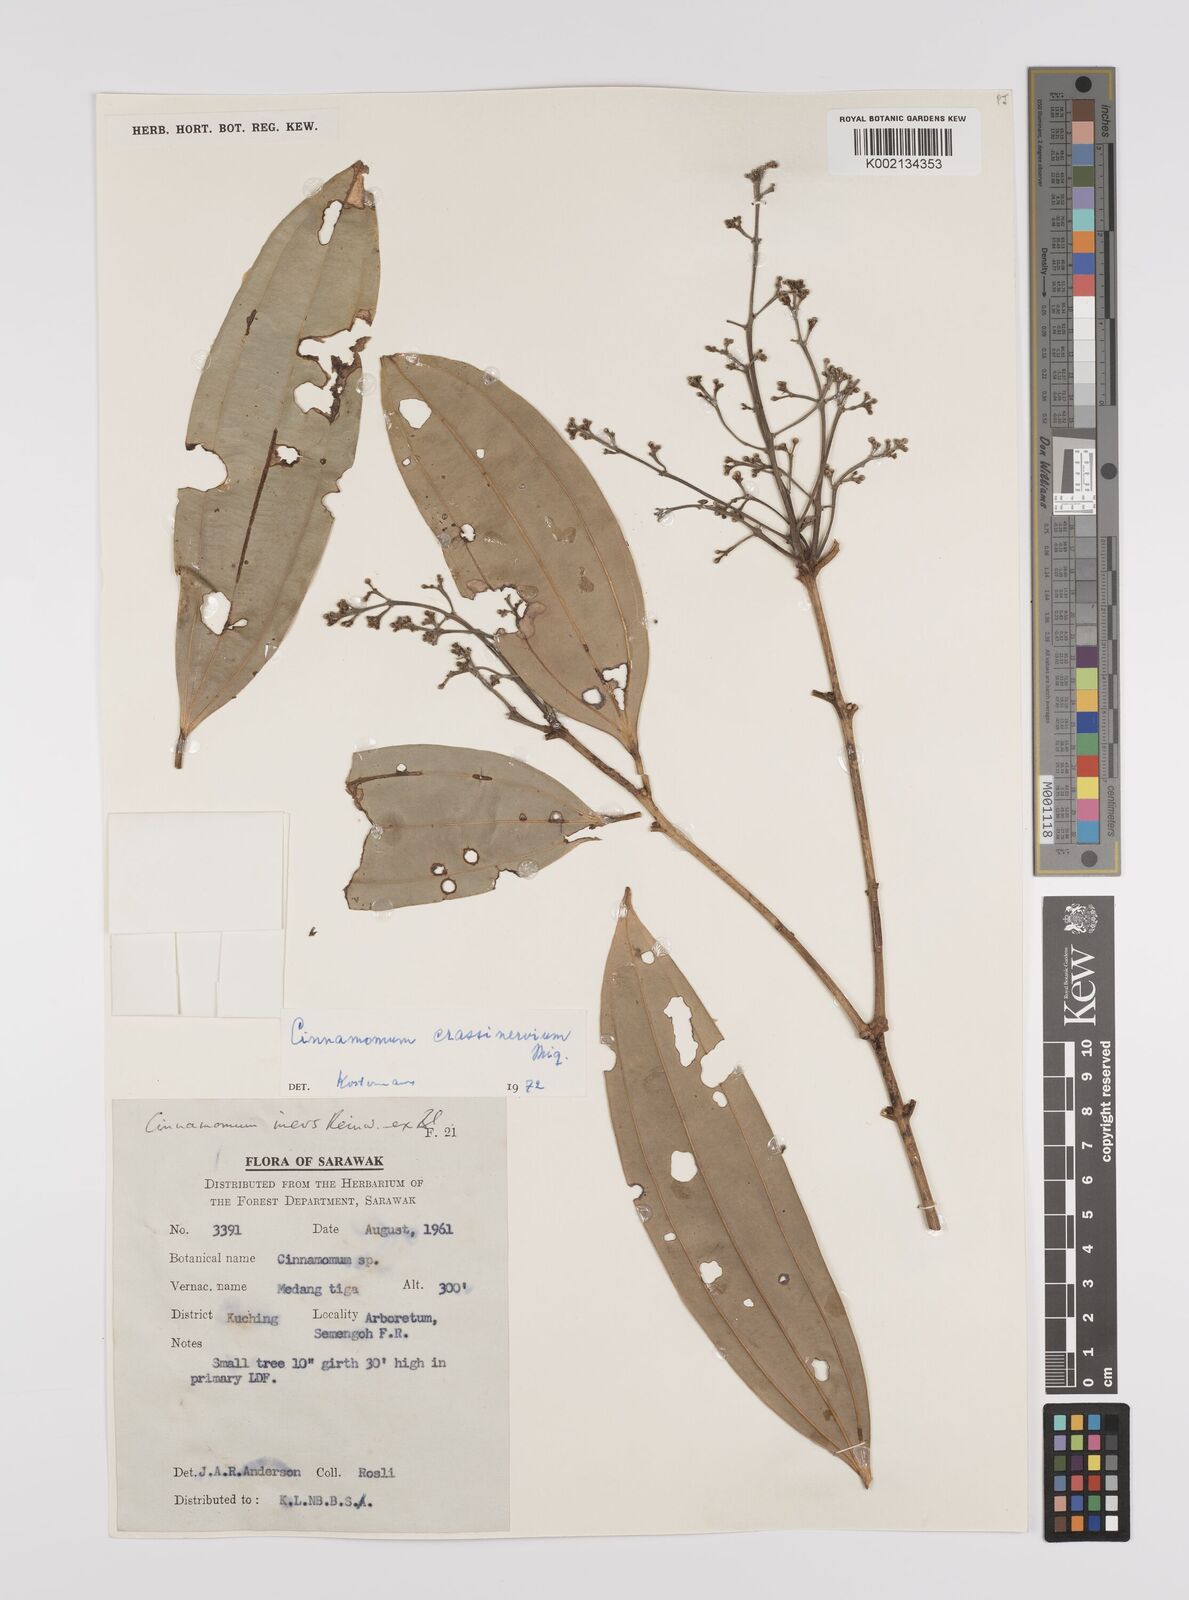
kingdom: Plantae
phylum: Tracheophyta
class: Magnoliopsida
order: Laurales
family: Lauraceae
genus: Cinnamomum
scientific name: Cinnamomum crassinervium
